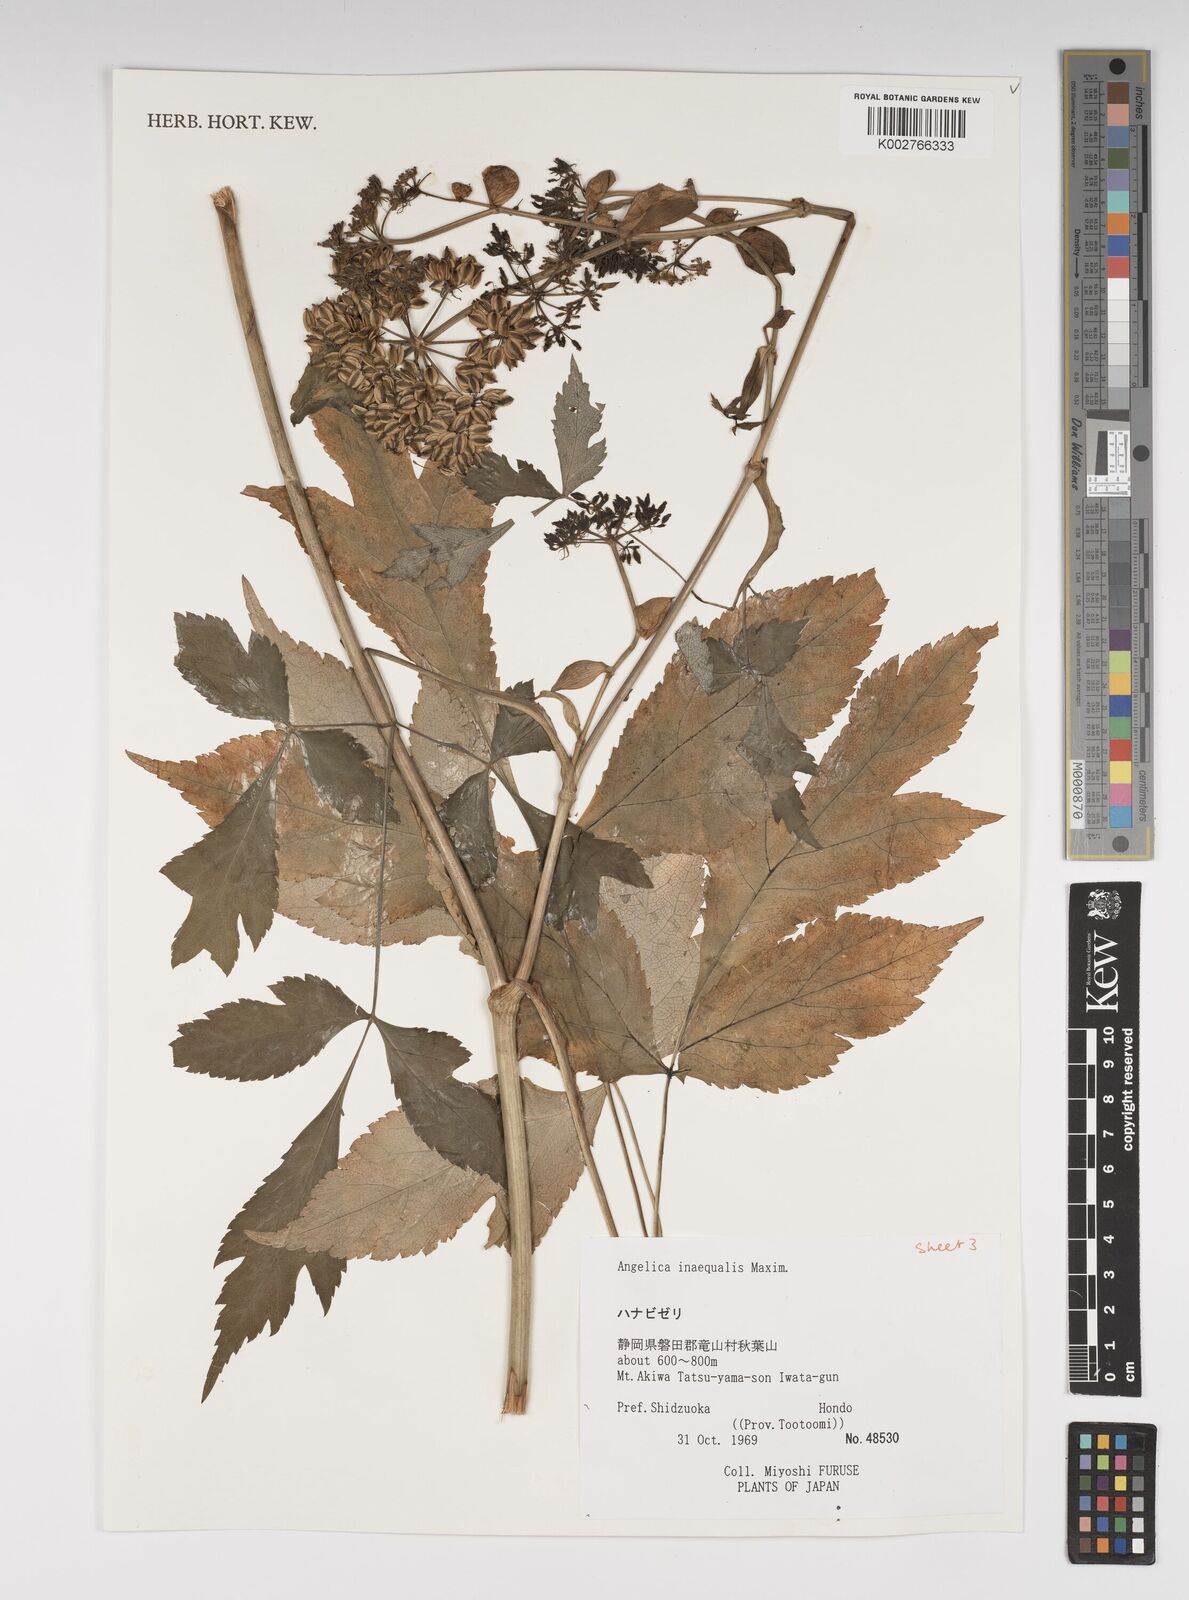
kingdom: Plantae
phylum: Tracheophyta
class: Magnoliopsida
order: Apiales
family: Apiaceae
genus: Angelica
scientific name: Angelica inaequalis
